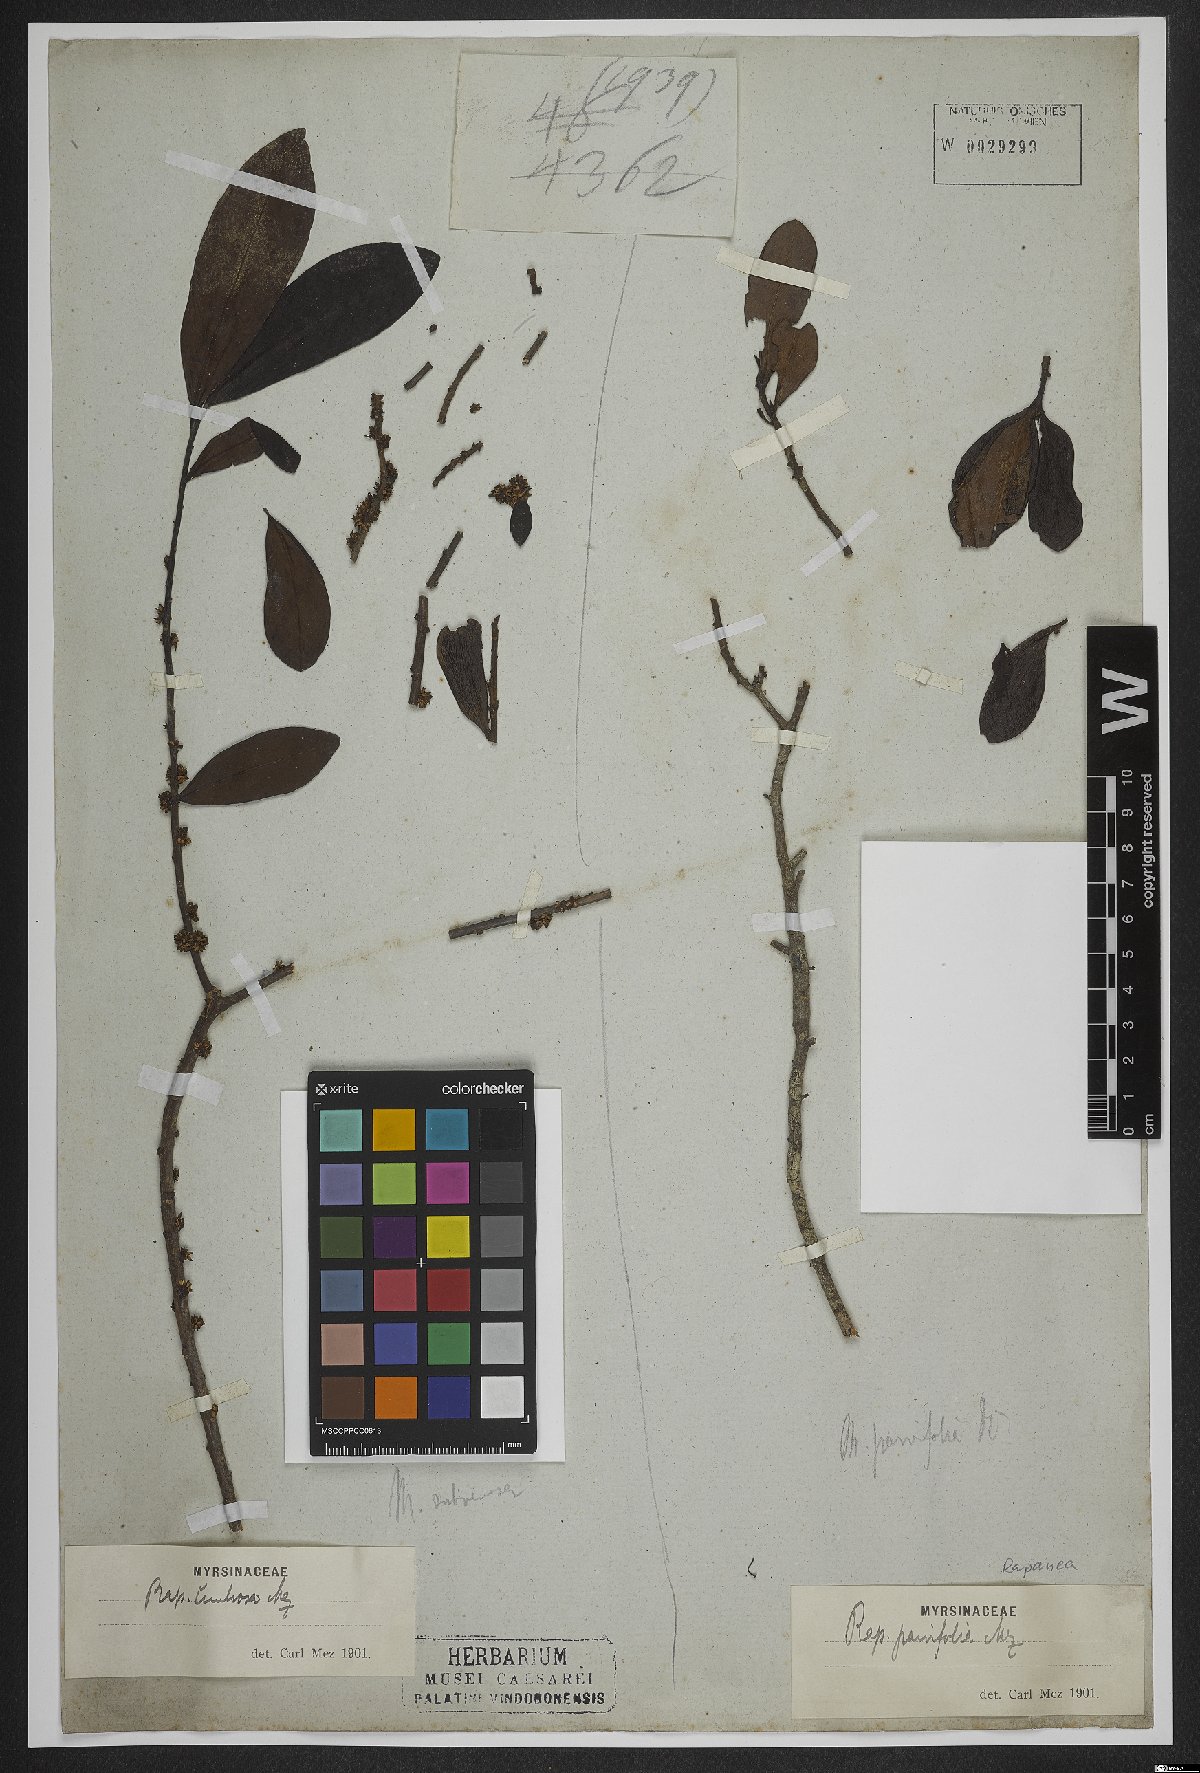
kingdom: Plantae
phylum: Tracheophyta
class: Magnoliopsida
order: Ericales
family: Primulaceae
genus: Myrsine
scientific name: Myrsine parvifolia
